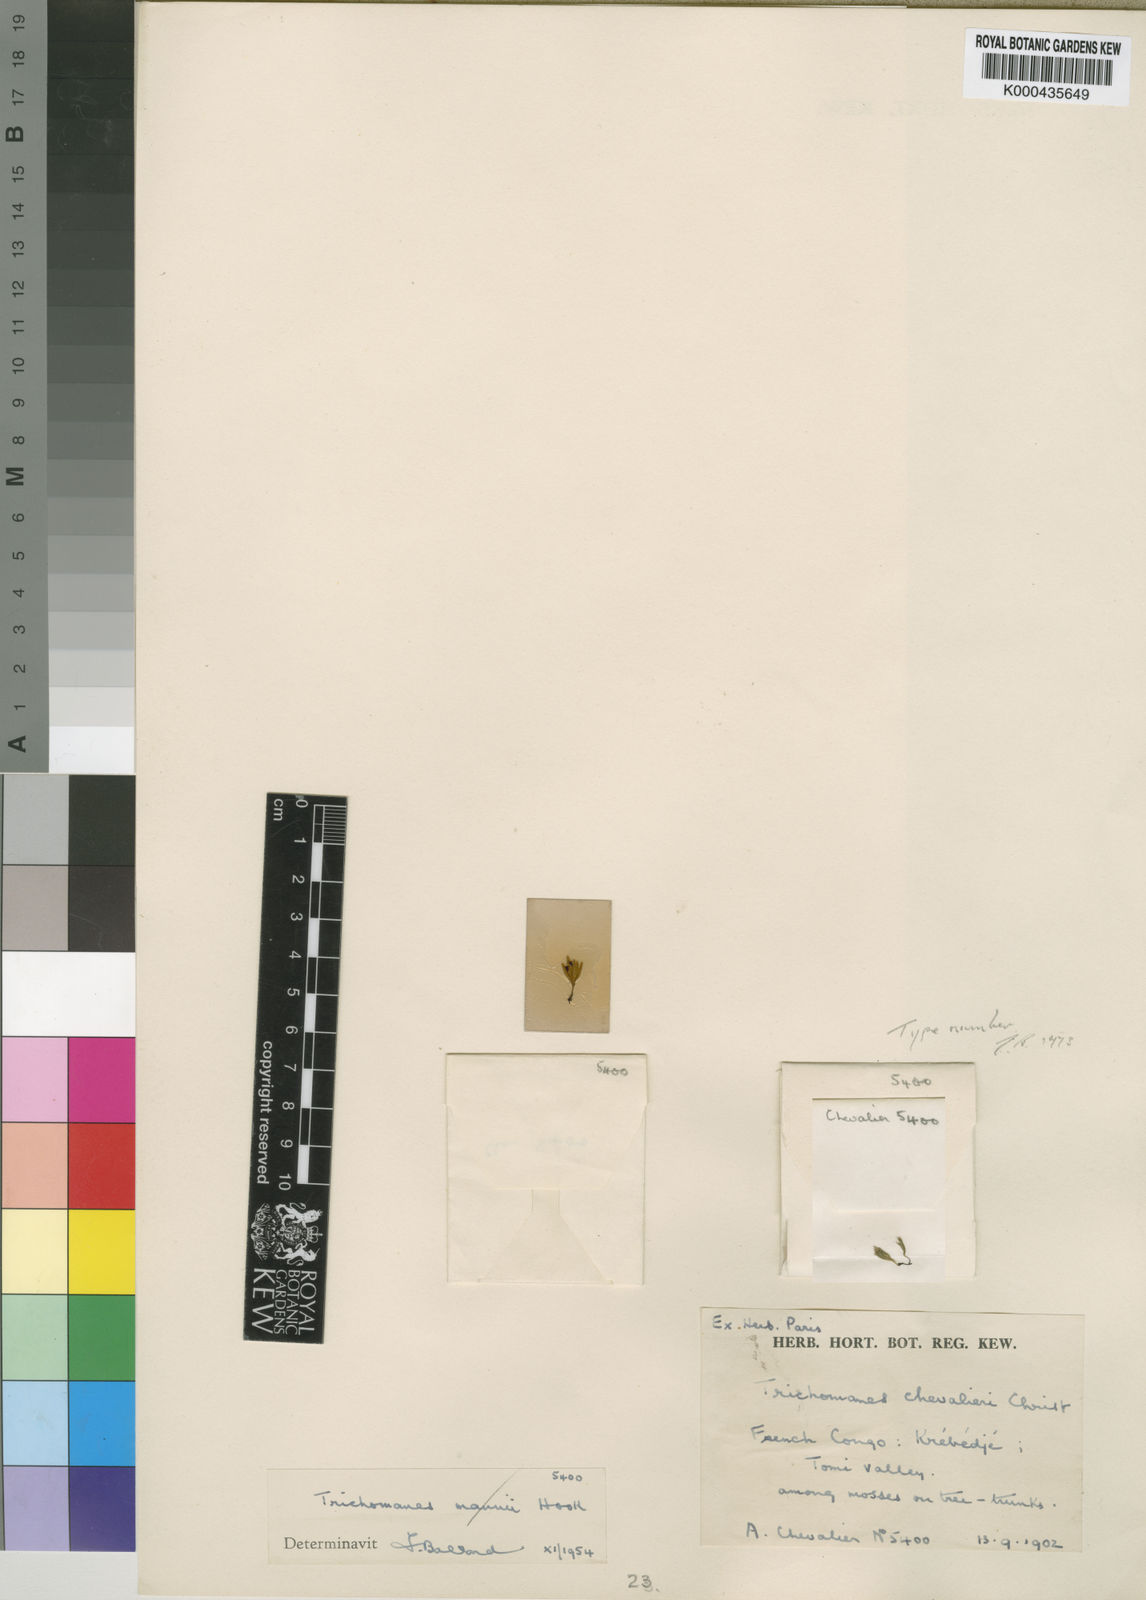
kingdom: Plantae
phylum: Tracheophyta
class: Polypodiopsida
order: Hymenophyllales
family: Hymenophyllaceae
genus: Crepidomanes
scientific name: Crepidomanes chevalieri
